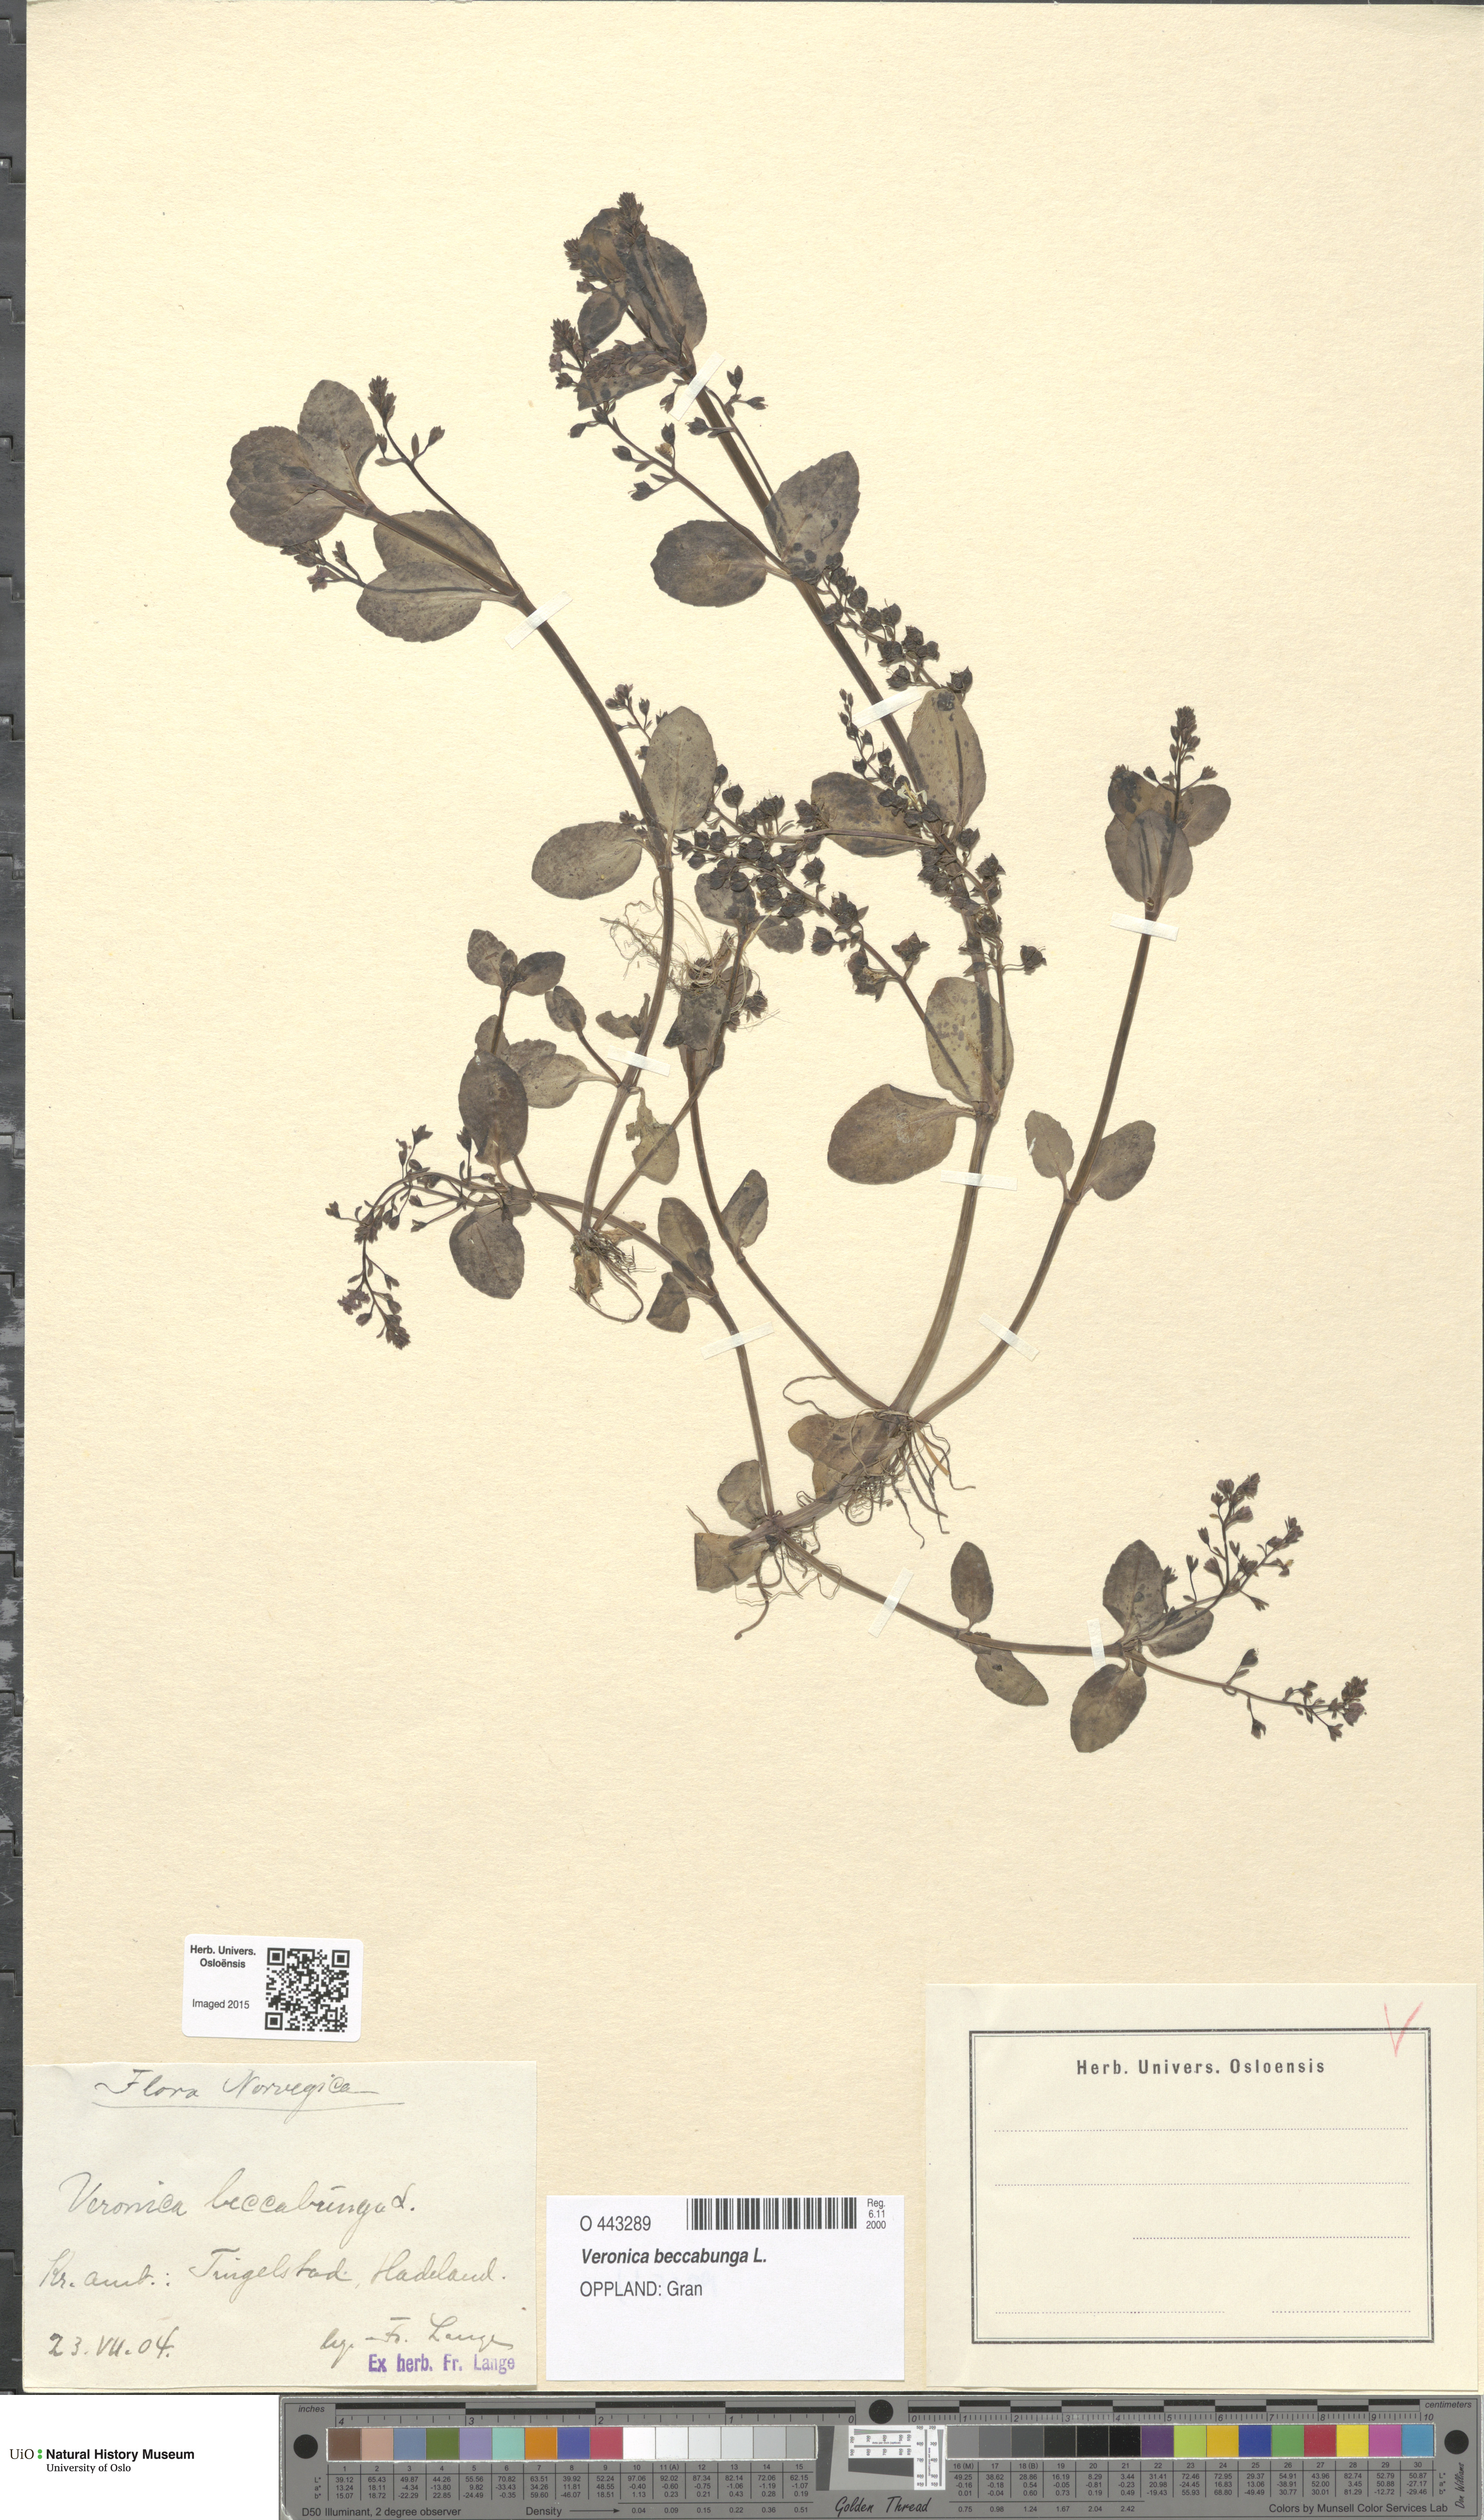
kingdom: Plantae
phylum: Tracheophyta
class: Magnoliopsida
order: Lamiales
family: Plantaginaceae
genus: Veronica
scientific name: Veronica beccabunga
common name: Brooklime
